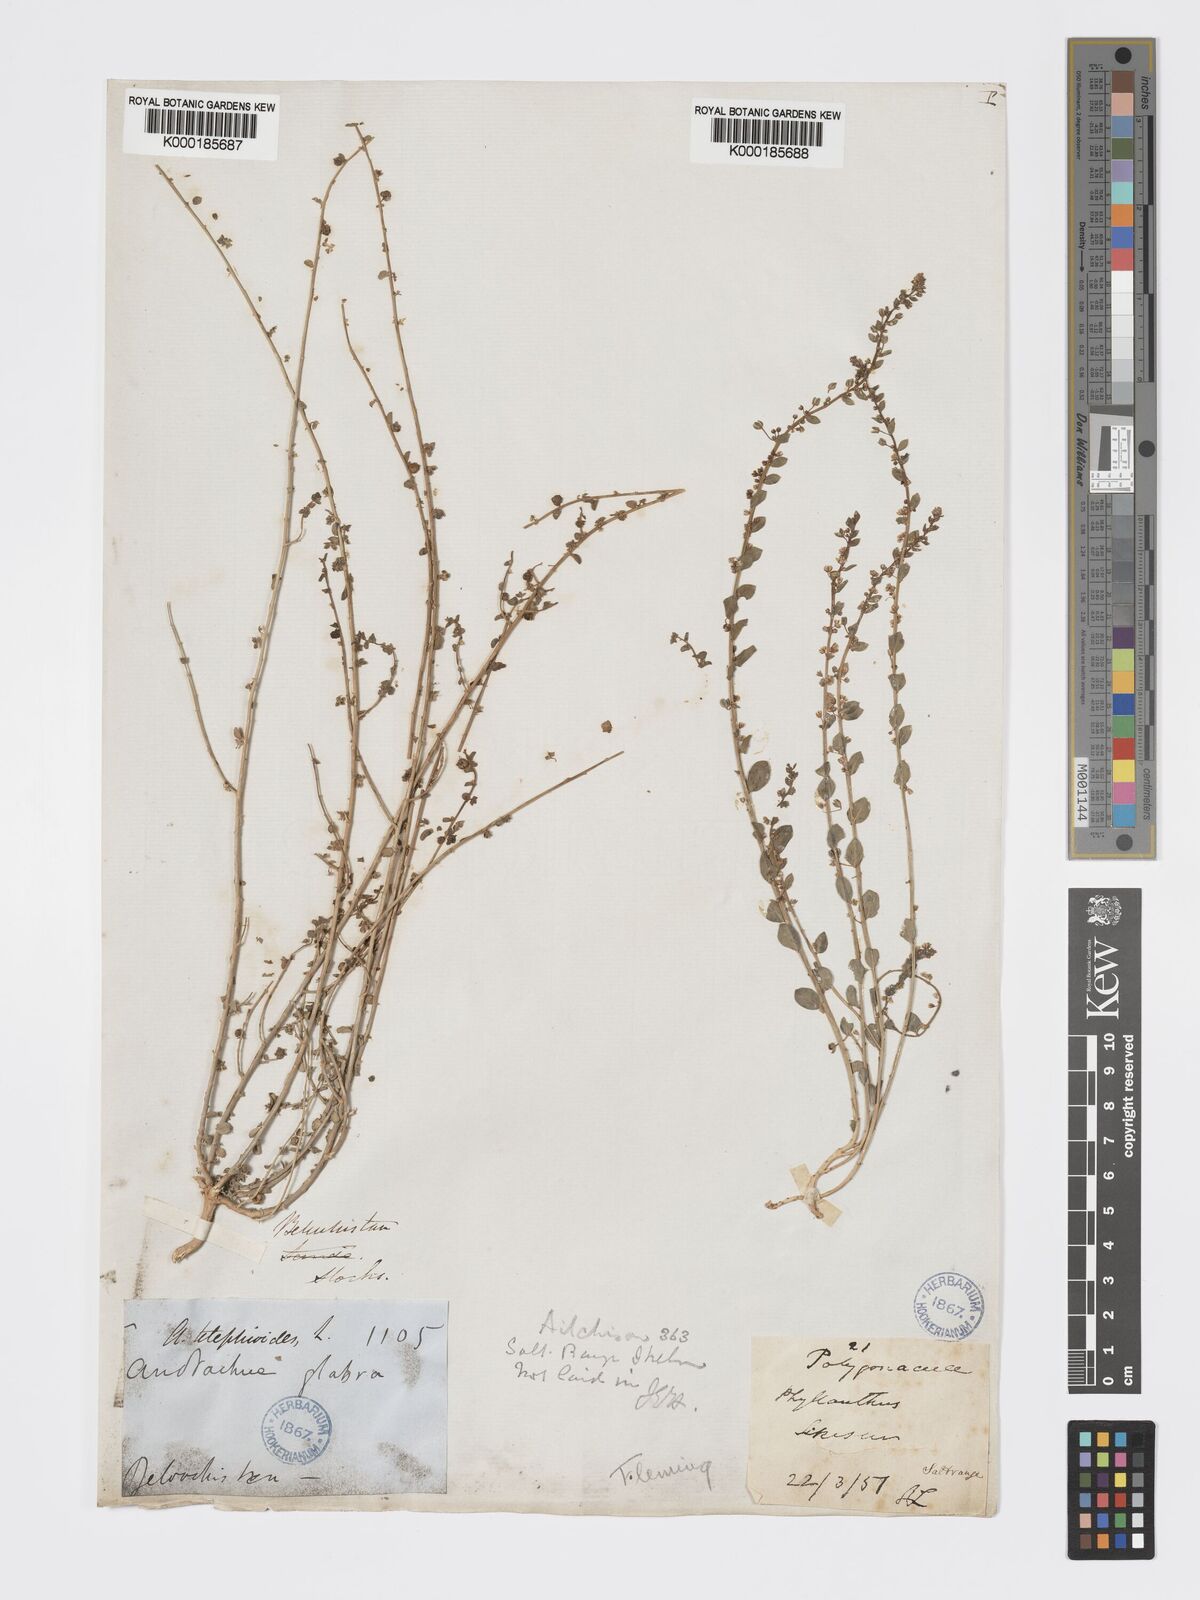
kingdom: Plantae
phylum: Tracheophyta
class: Magnoliopsida
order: Malpighiales
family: Phyllanthaceae
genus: Andrachne
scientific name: Andrachne telephioides
